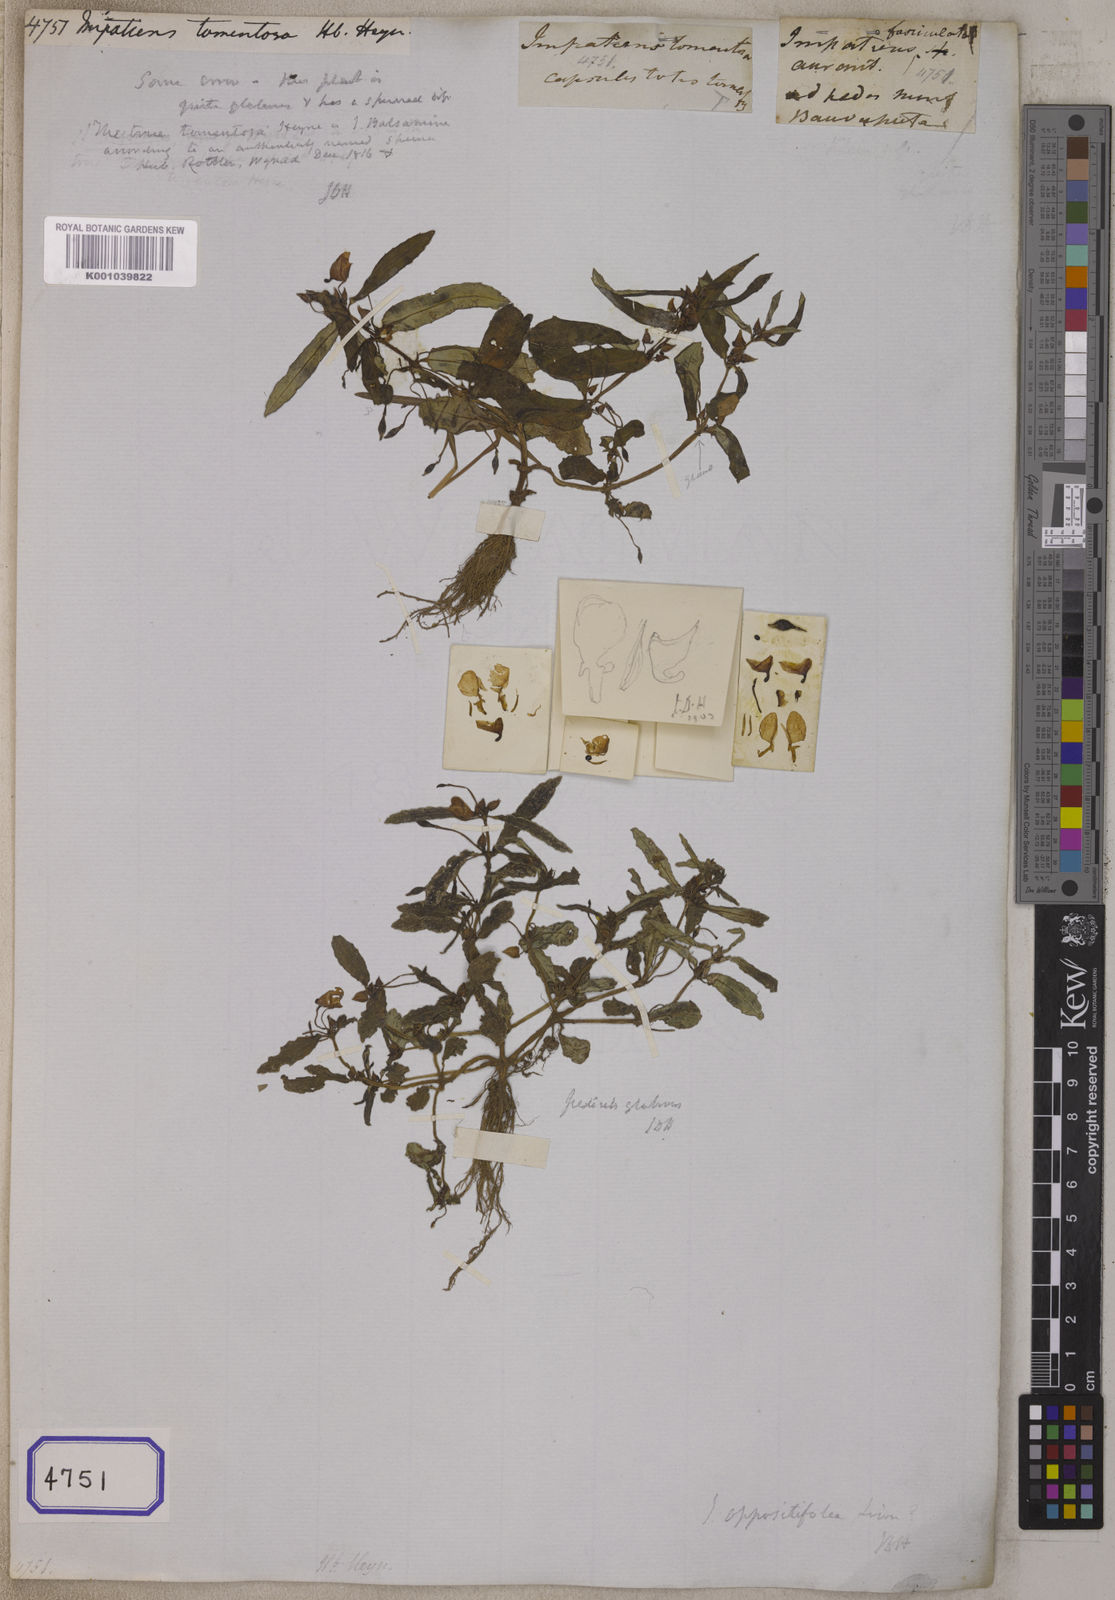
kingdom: Plantae
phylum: Tracheophyta
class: Magnoliopsida
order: Ericales
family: Balsaminaceae
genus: Impatiens
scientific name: Impatiens
